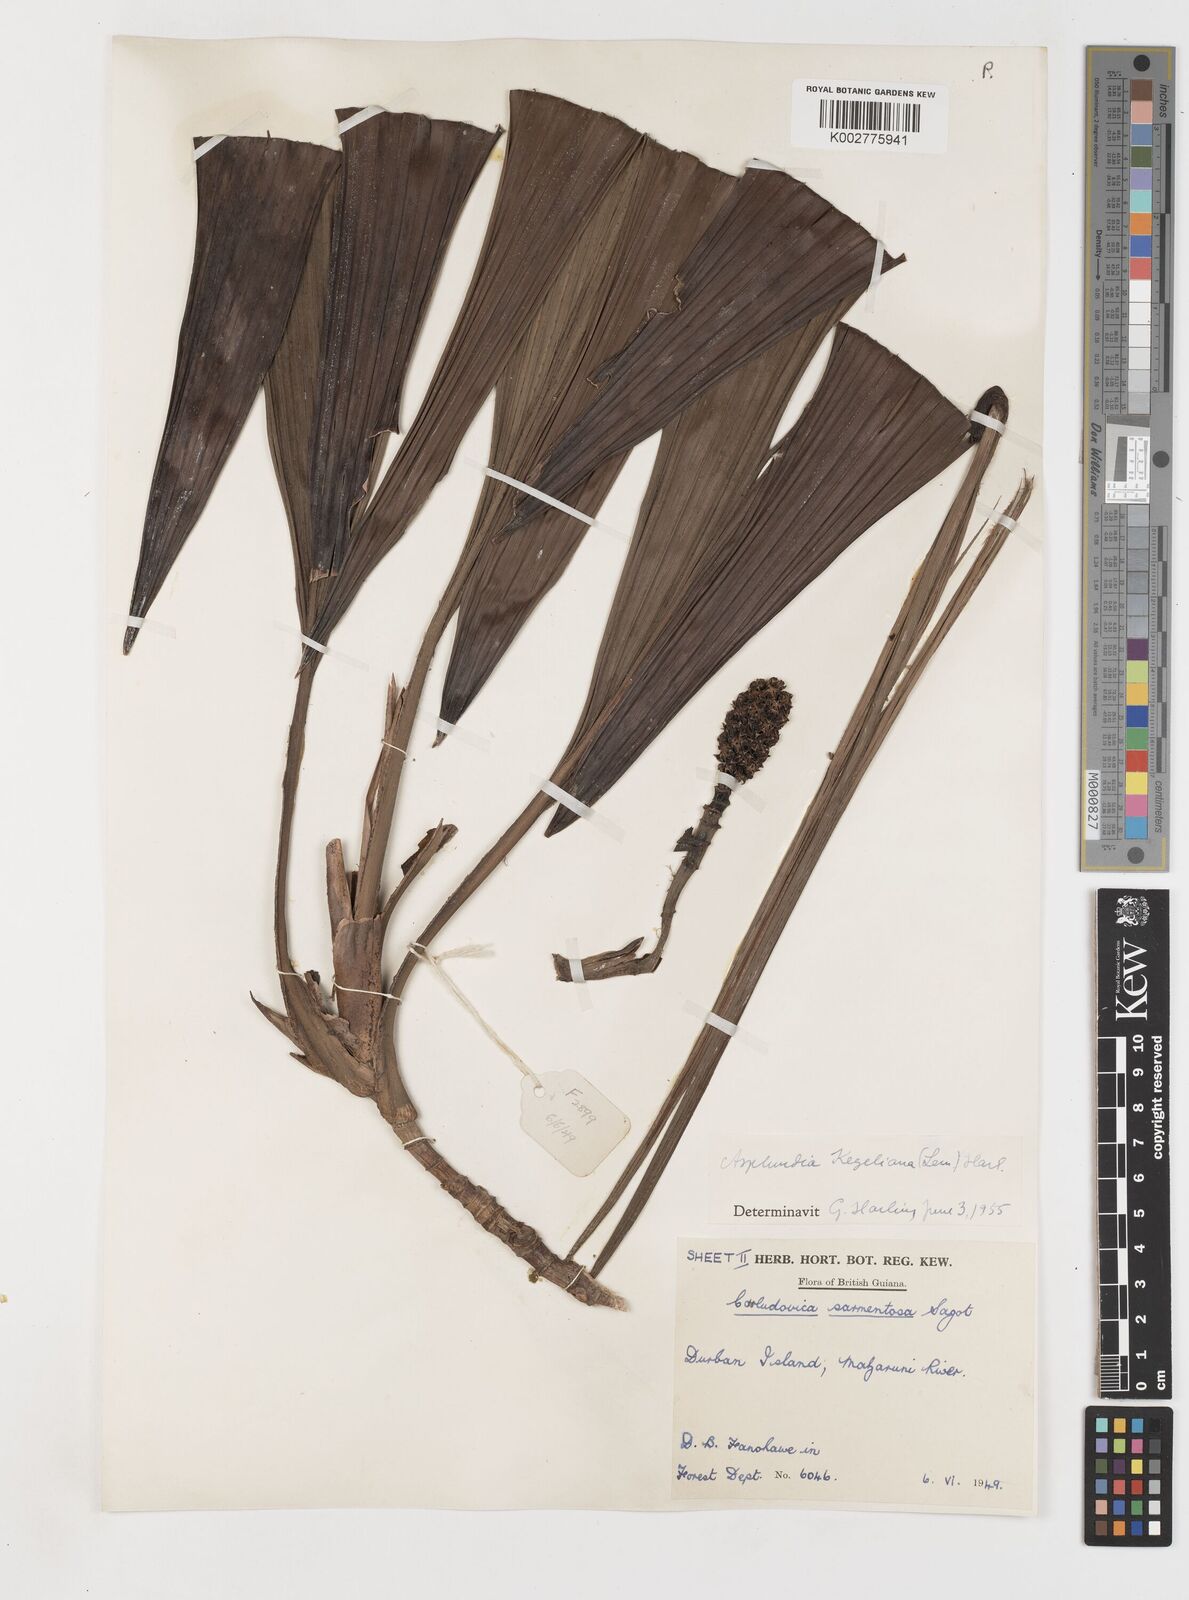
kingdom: Plantae
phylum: Tracheophyta
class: Liliopsida
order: Pandanales
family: Cyclanthaceae
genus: Thoracocarpus
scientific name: Thoracocarpus bissectus
